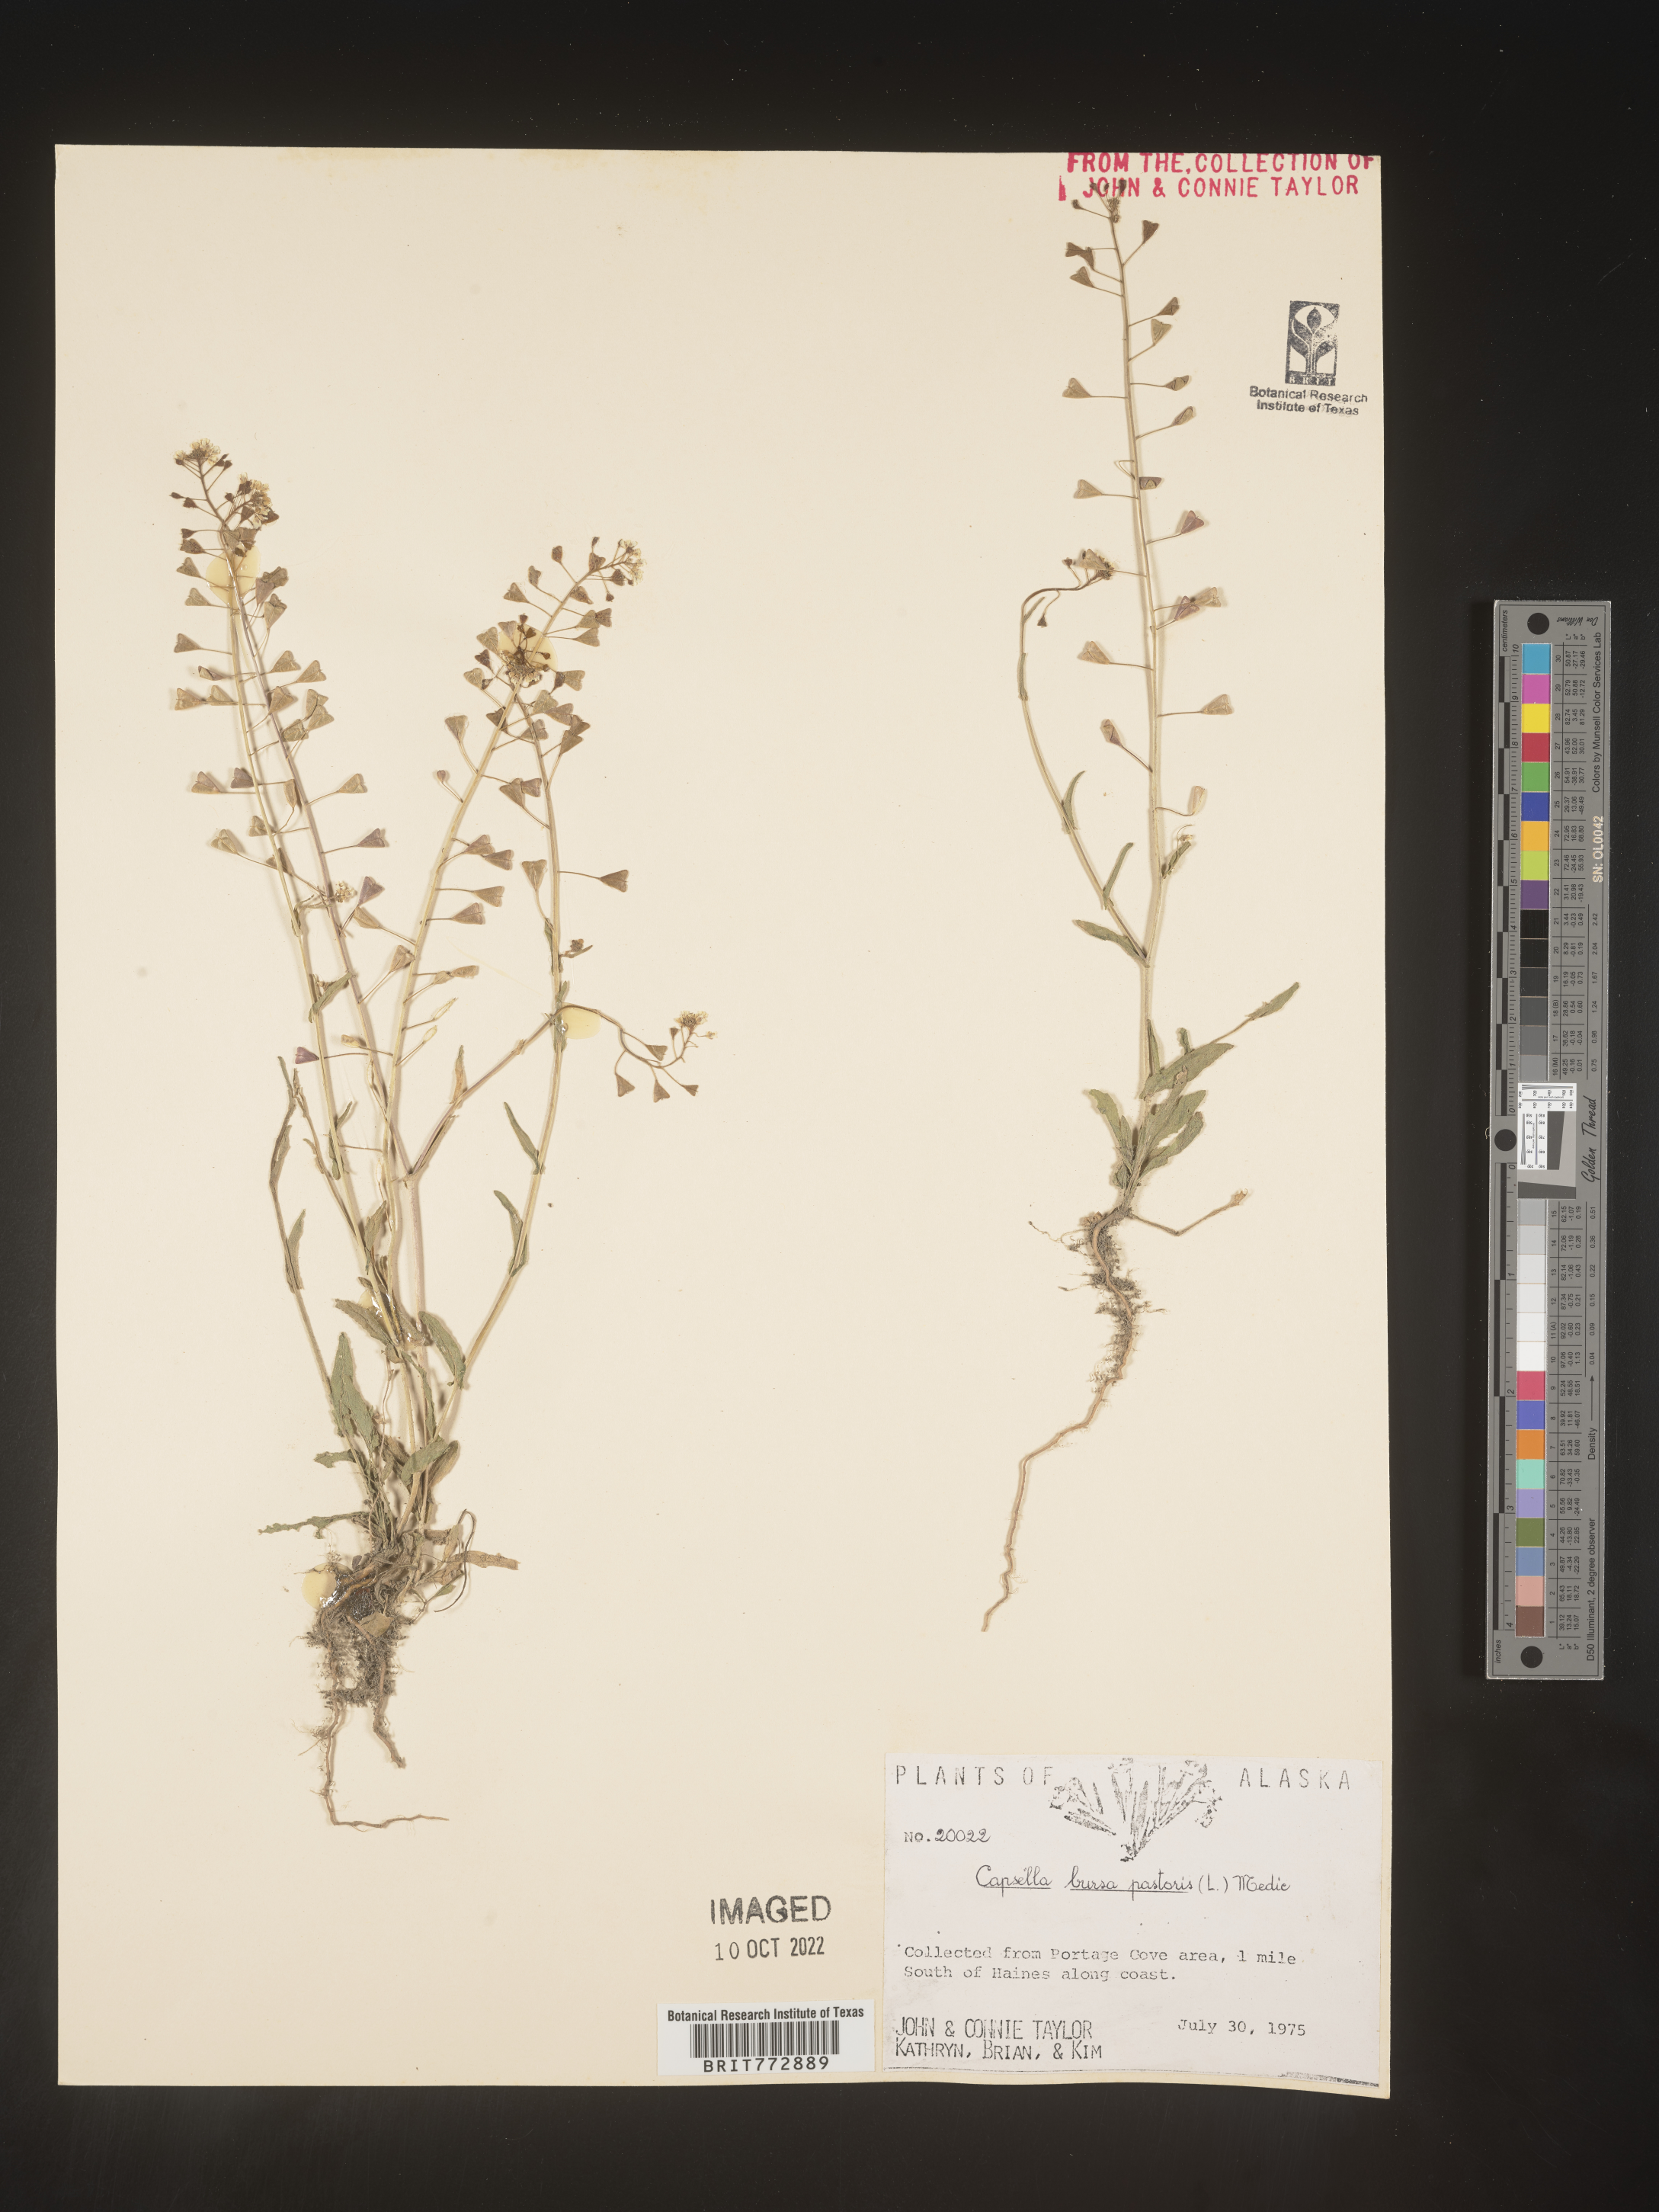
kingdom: Plantae
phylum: Tracheophyta
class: Magnoliopsida
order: Brassicales
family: Brassicaceae
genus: Capsella
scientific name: Capsella bursa-pastoris
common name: Shepherd's purse
